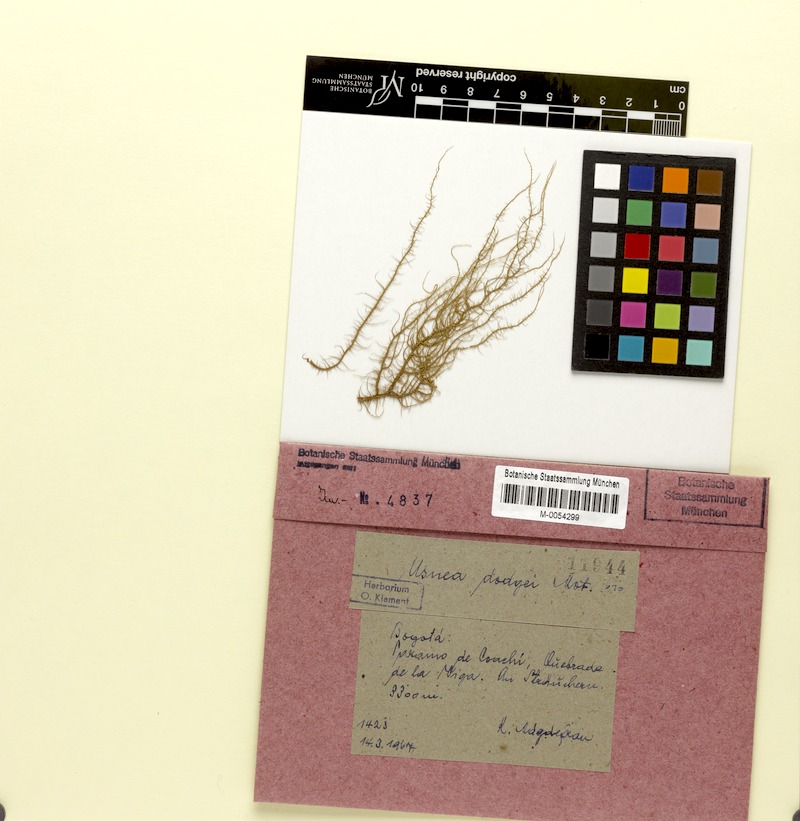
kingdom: Fungi
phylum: Ascomycota
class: Lecanoromycetes
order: Lecanorales
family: Parmeliaceae
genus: Usnea
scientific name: Usnea dodgei
